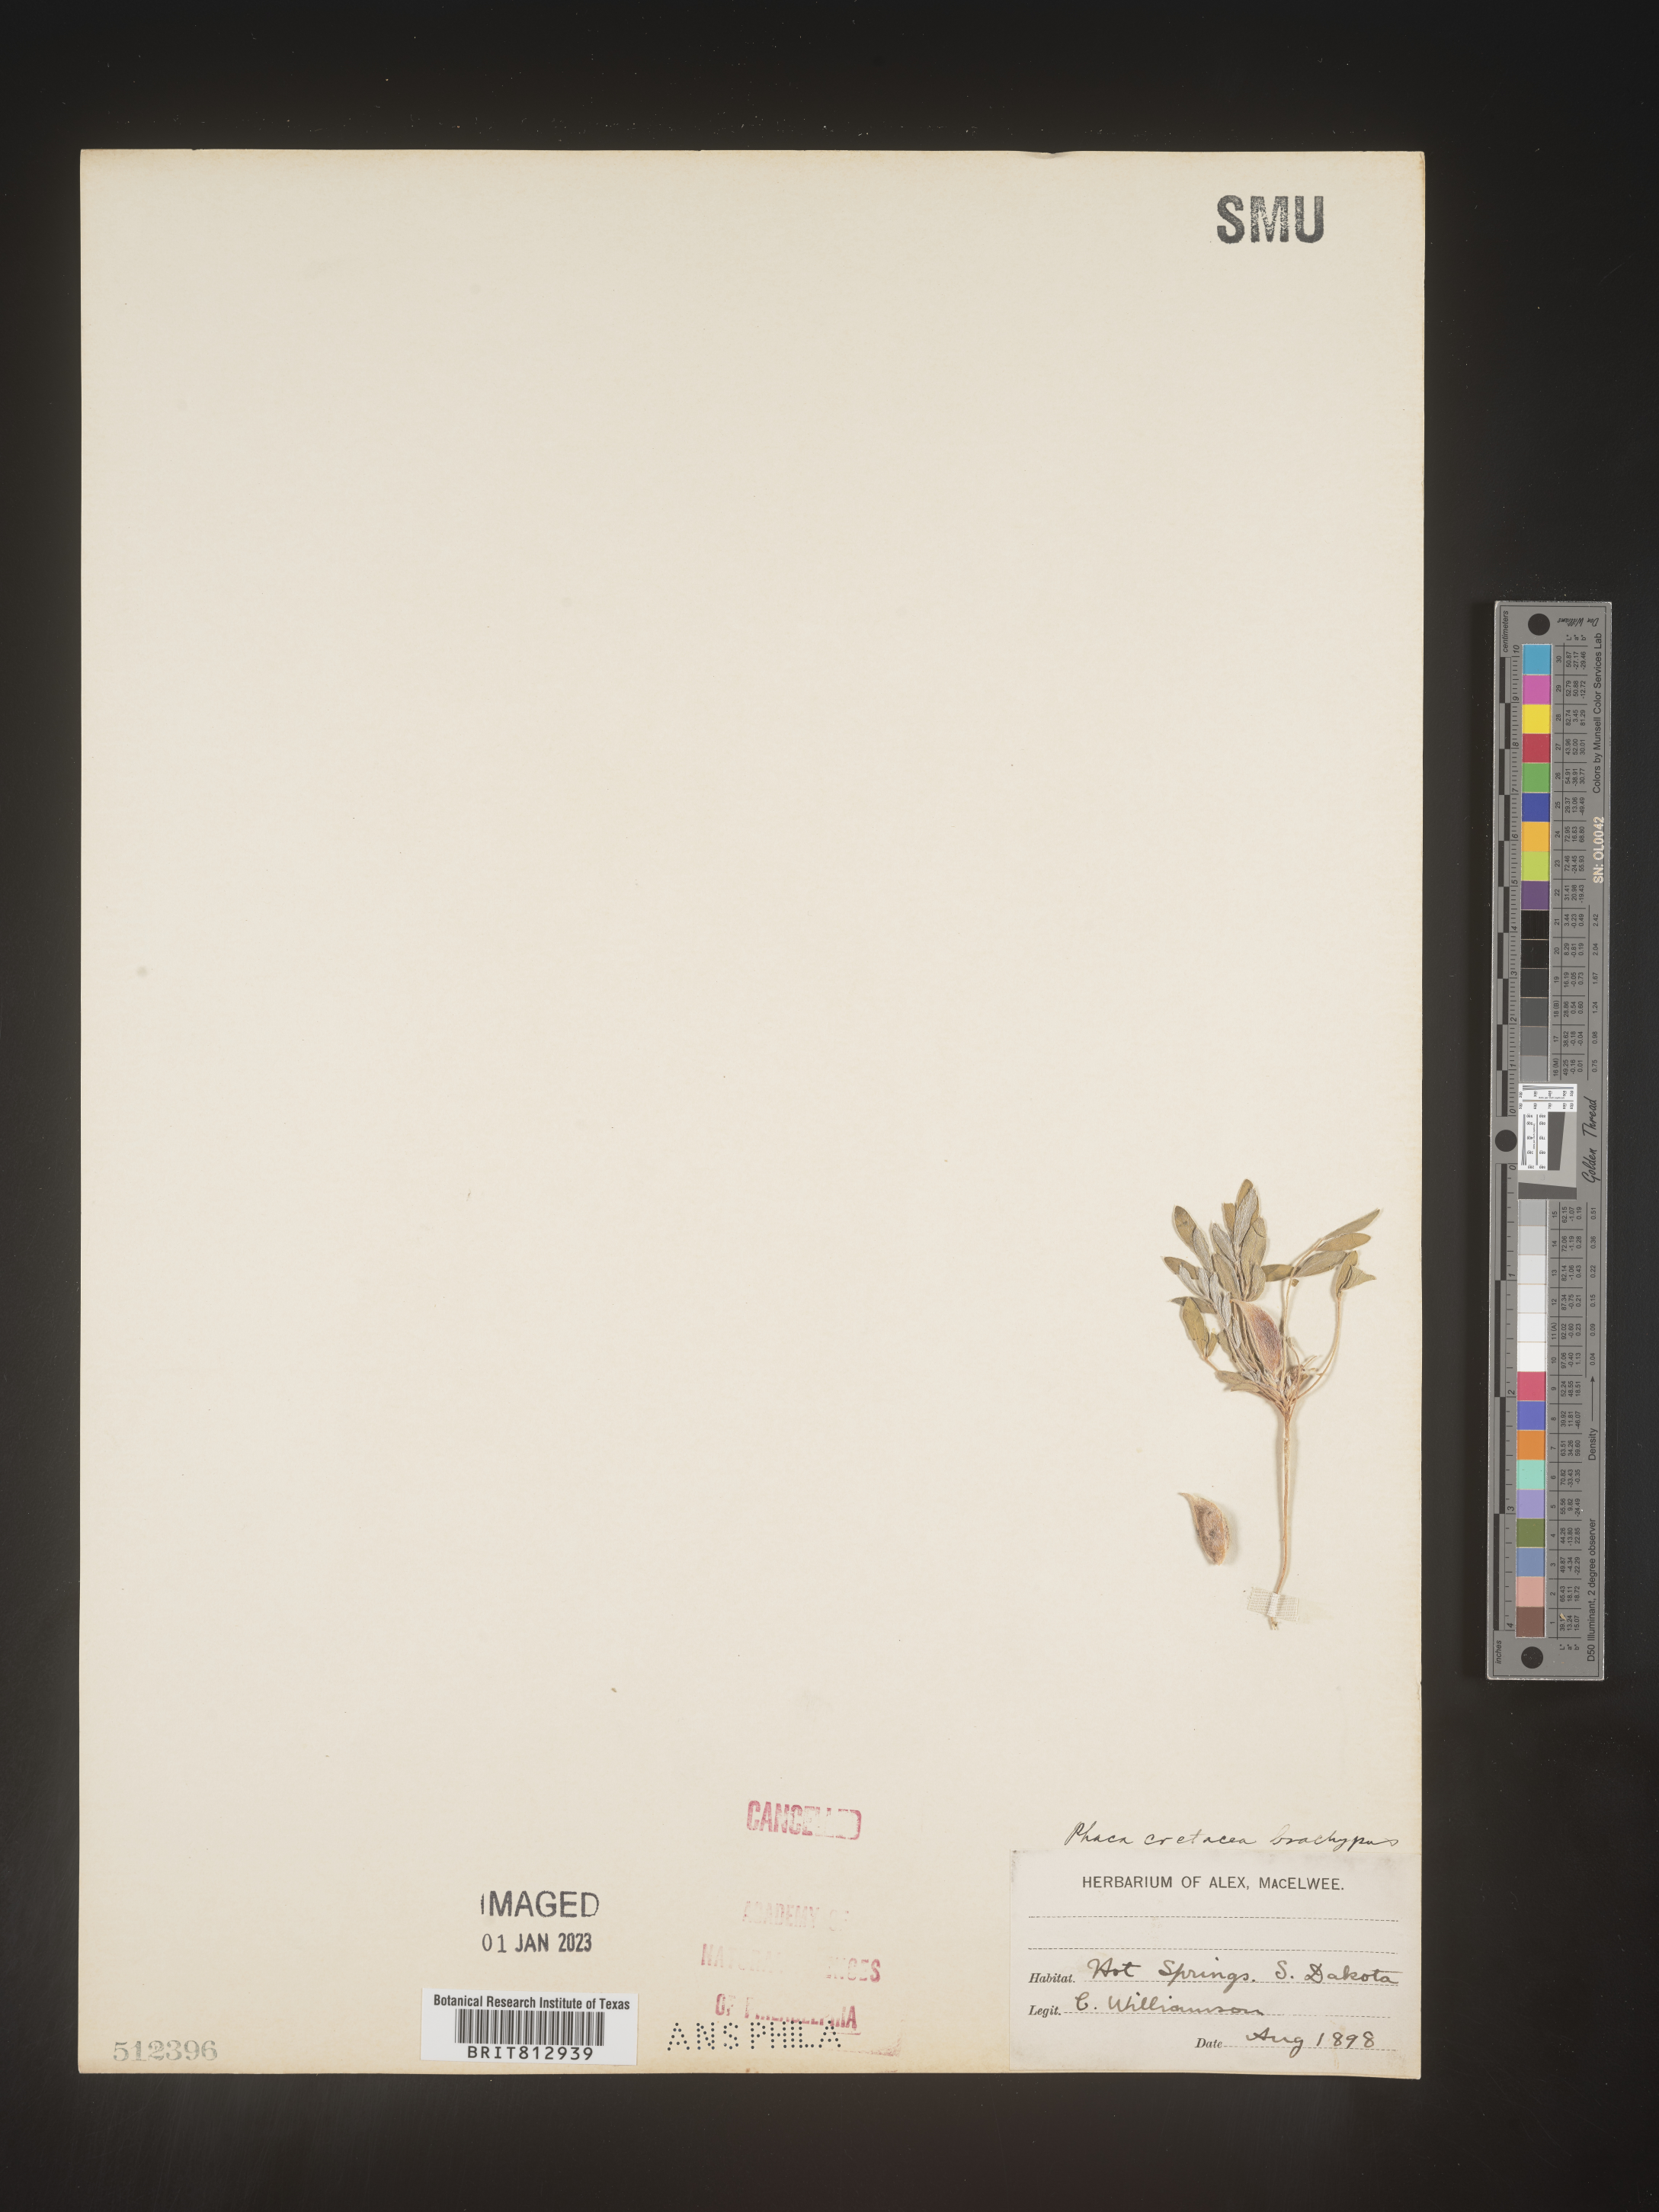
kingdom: Plantae
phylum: Tracheophyta
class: Magnoliopsida
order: Fabales
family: Fabaceae
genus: Astragalus
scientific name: Astragalus
